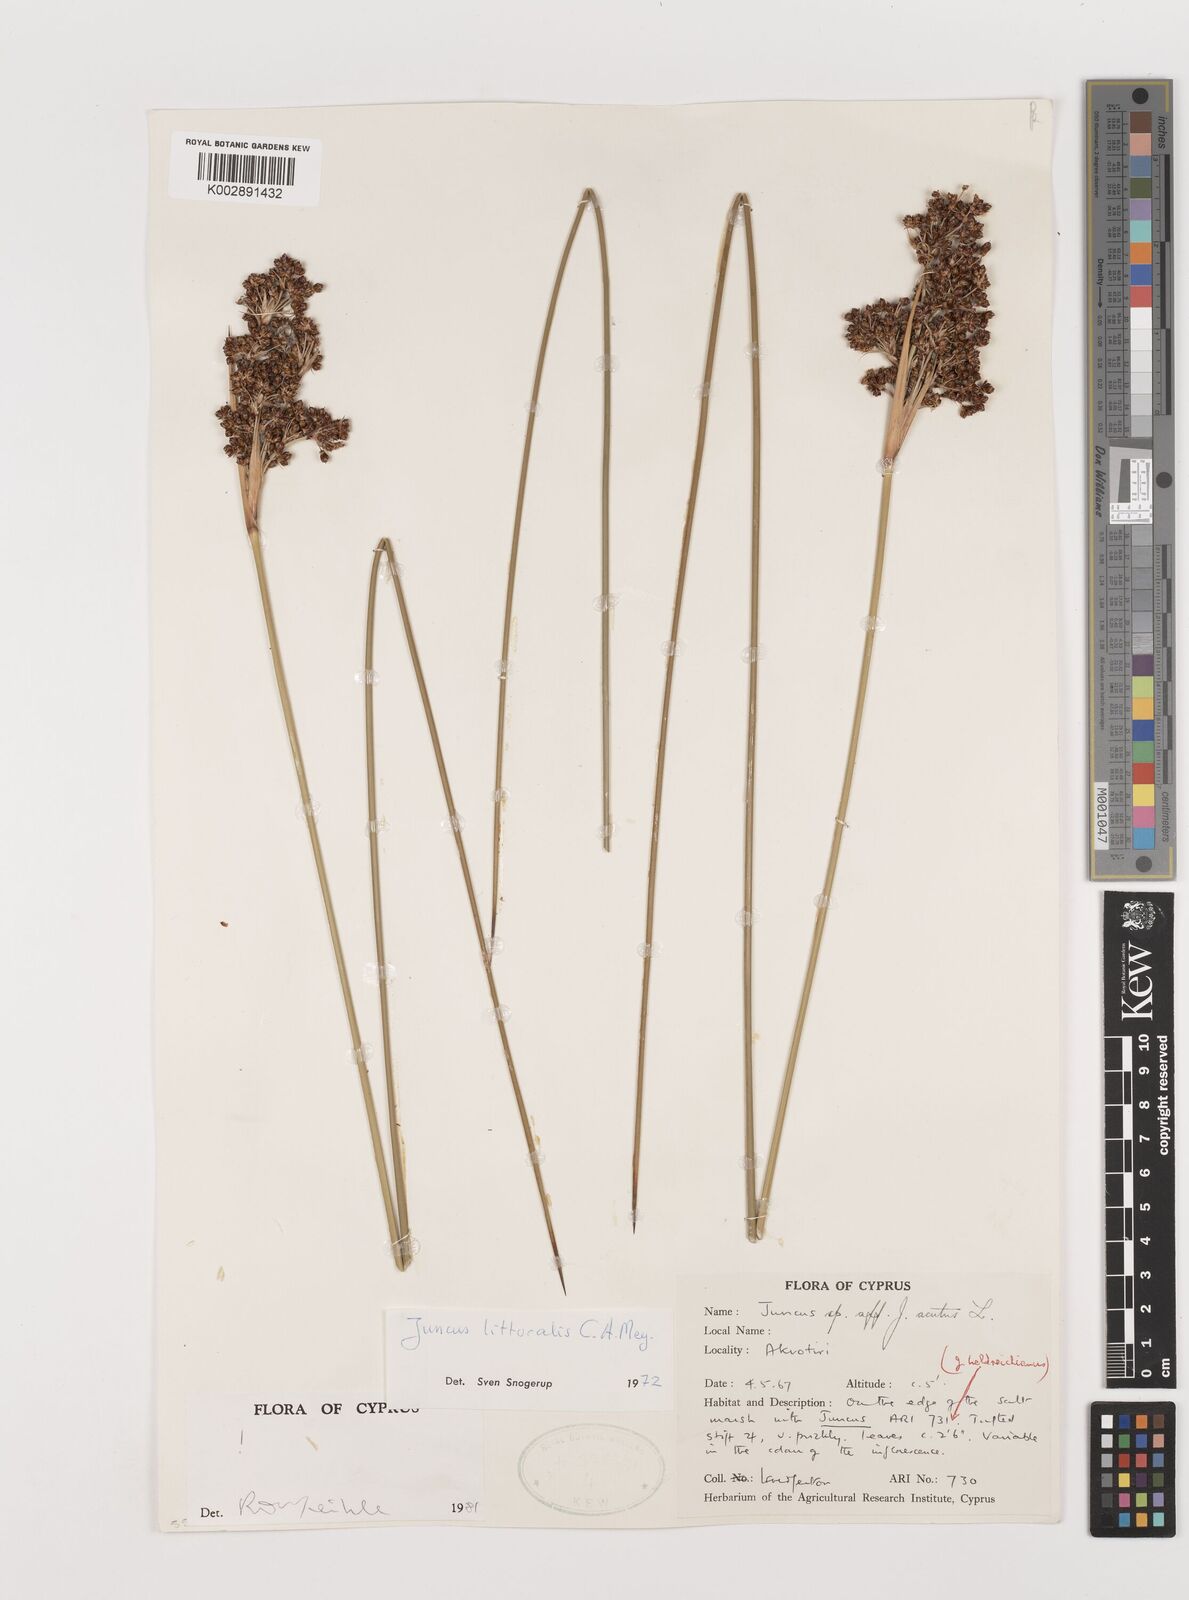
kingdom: Plantae
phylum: Tracheophyta
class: Liliopsida
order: Poales
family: Juncaceae
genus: Juncus
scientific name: Juncus littoralis
